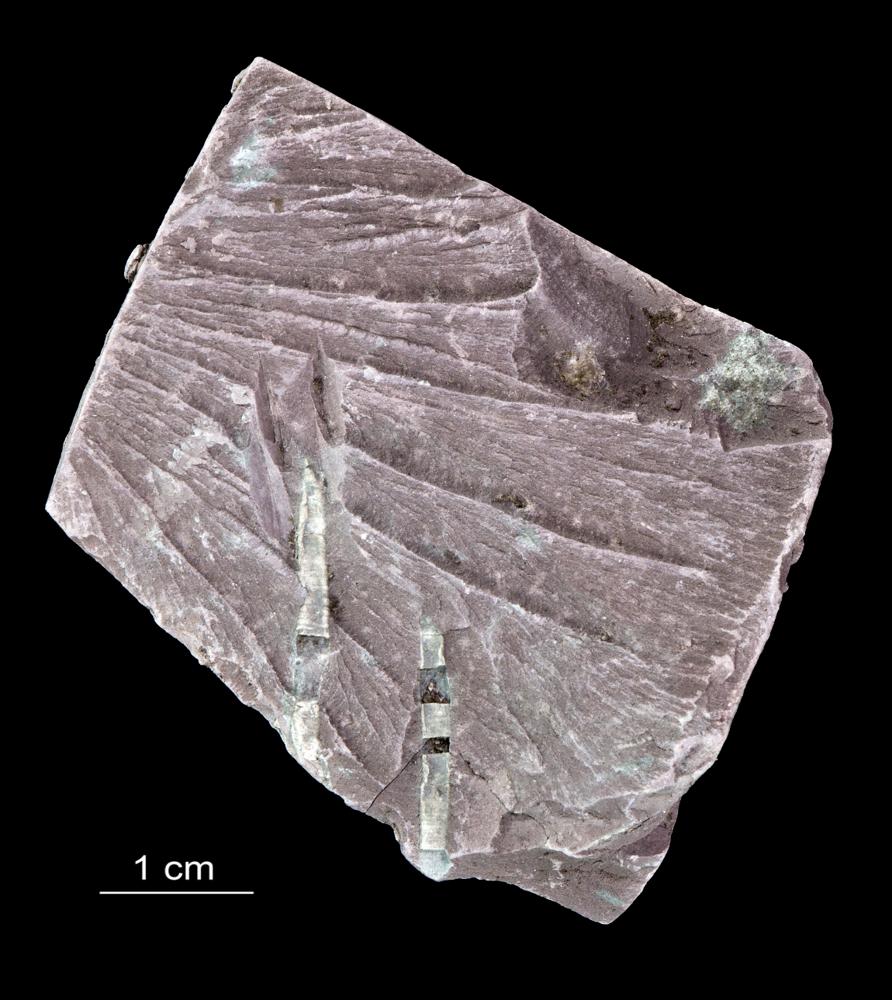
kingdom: Chromista
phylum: Foraminifera
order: Astrorhizida
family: Hyperamminidae
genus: Platysolenites
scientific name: Platysolenites antiquissimus
